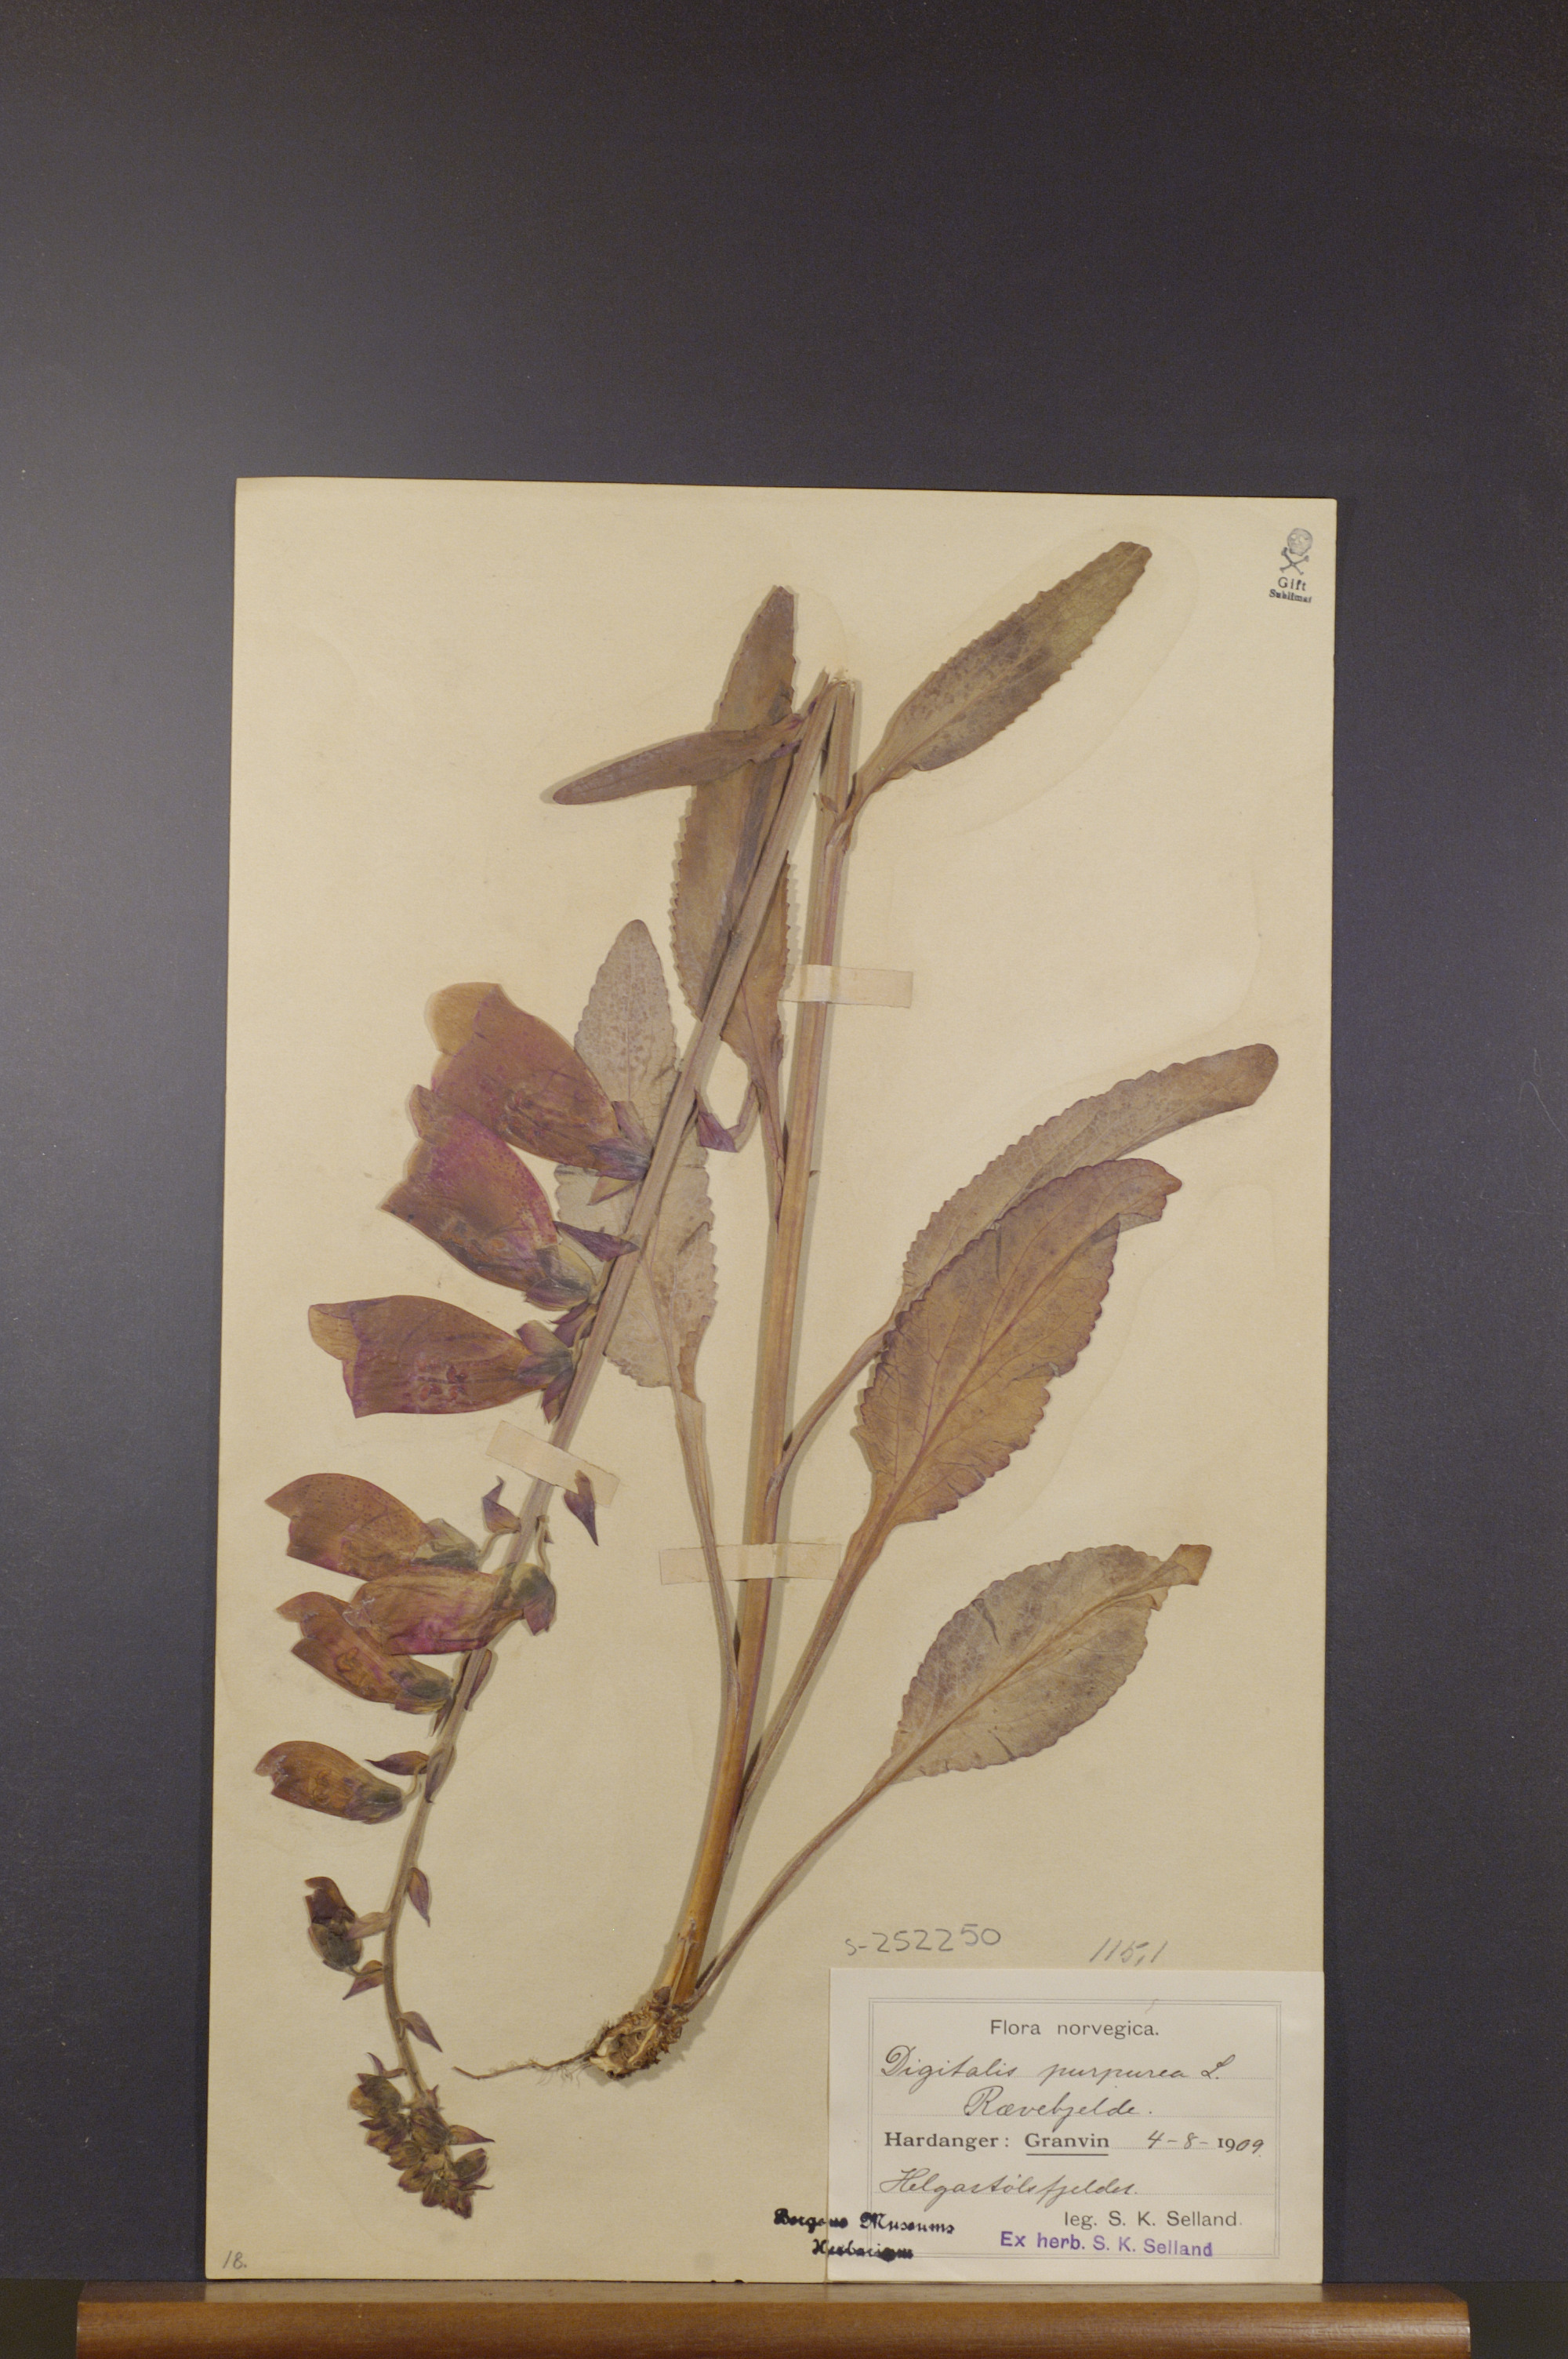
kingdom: Plantae
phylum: Tracheophyta
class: Magnoliopsida
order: Lamiales
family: Plantaginaceae
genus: Digitalis
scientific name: Digitalis purpurea
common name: Foxglove
